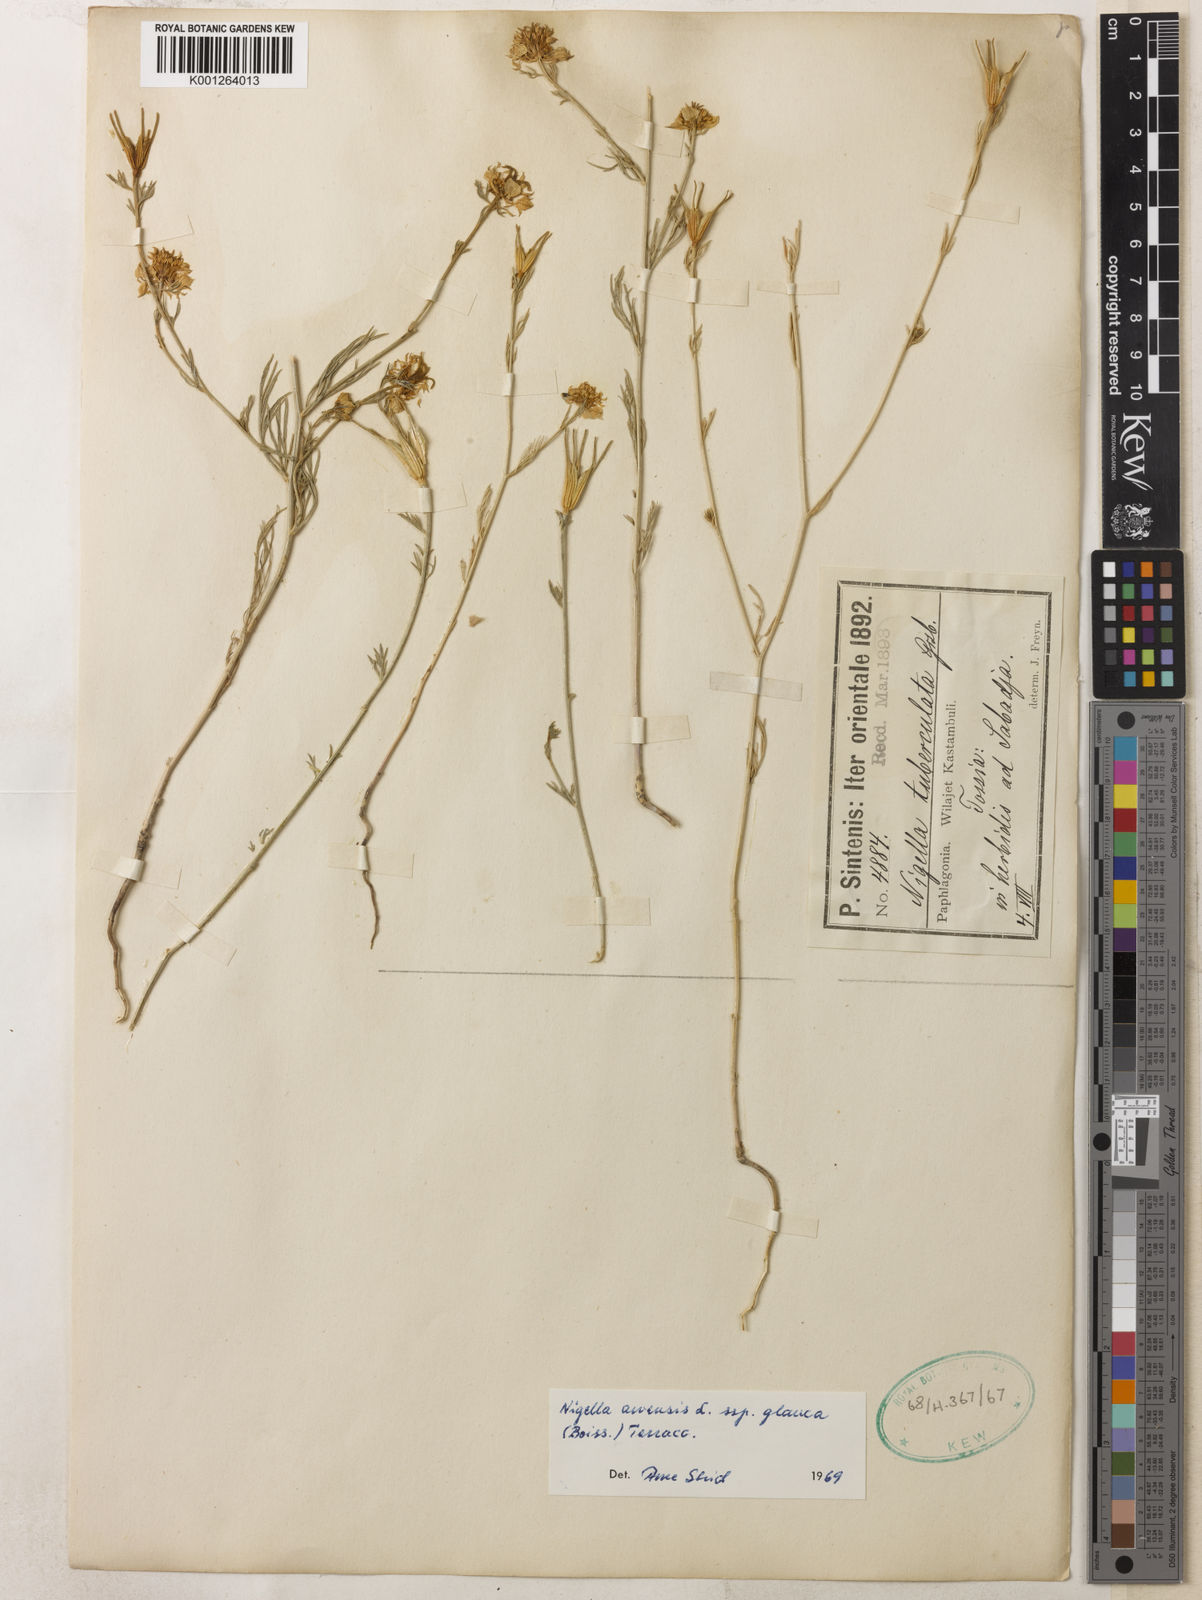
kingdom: Plantae
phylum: Tracheophyta
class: Magnoliopsida
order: Ranunculales
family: Ranunculaceae
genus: Nigella
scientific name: Nigella arvensis
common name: Wild fennel-flower
